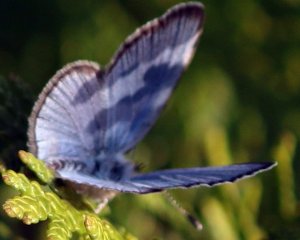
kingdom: Animalia
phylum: Arthropoda
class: Insecta
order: Lepidoptera
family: Lycaenidae
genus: Glaucopsyche
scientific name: Glaucopsyche lygdamus
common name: Silvery Blue
